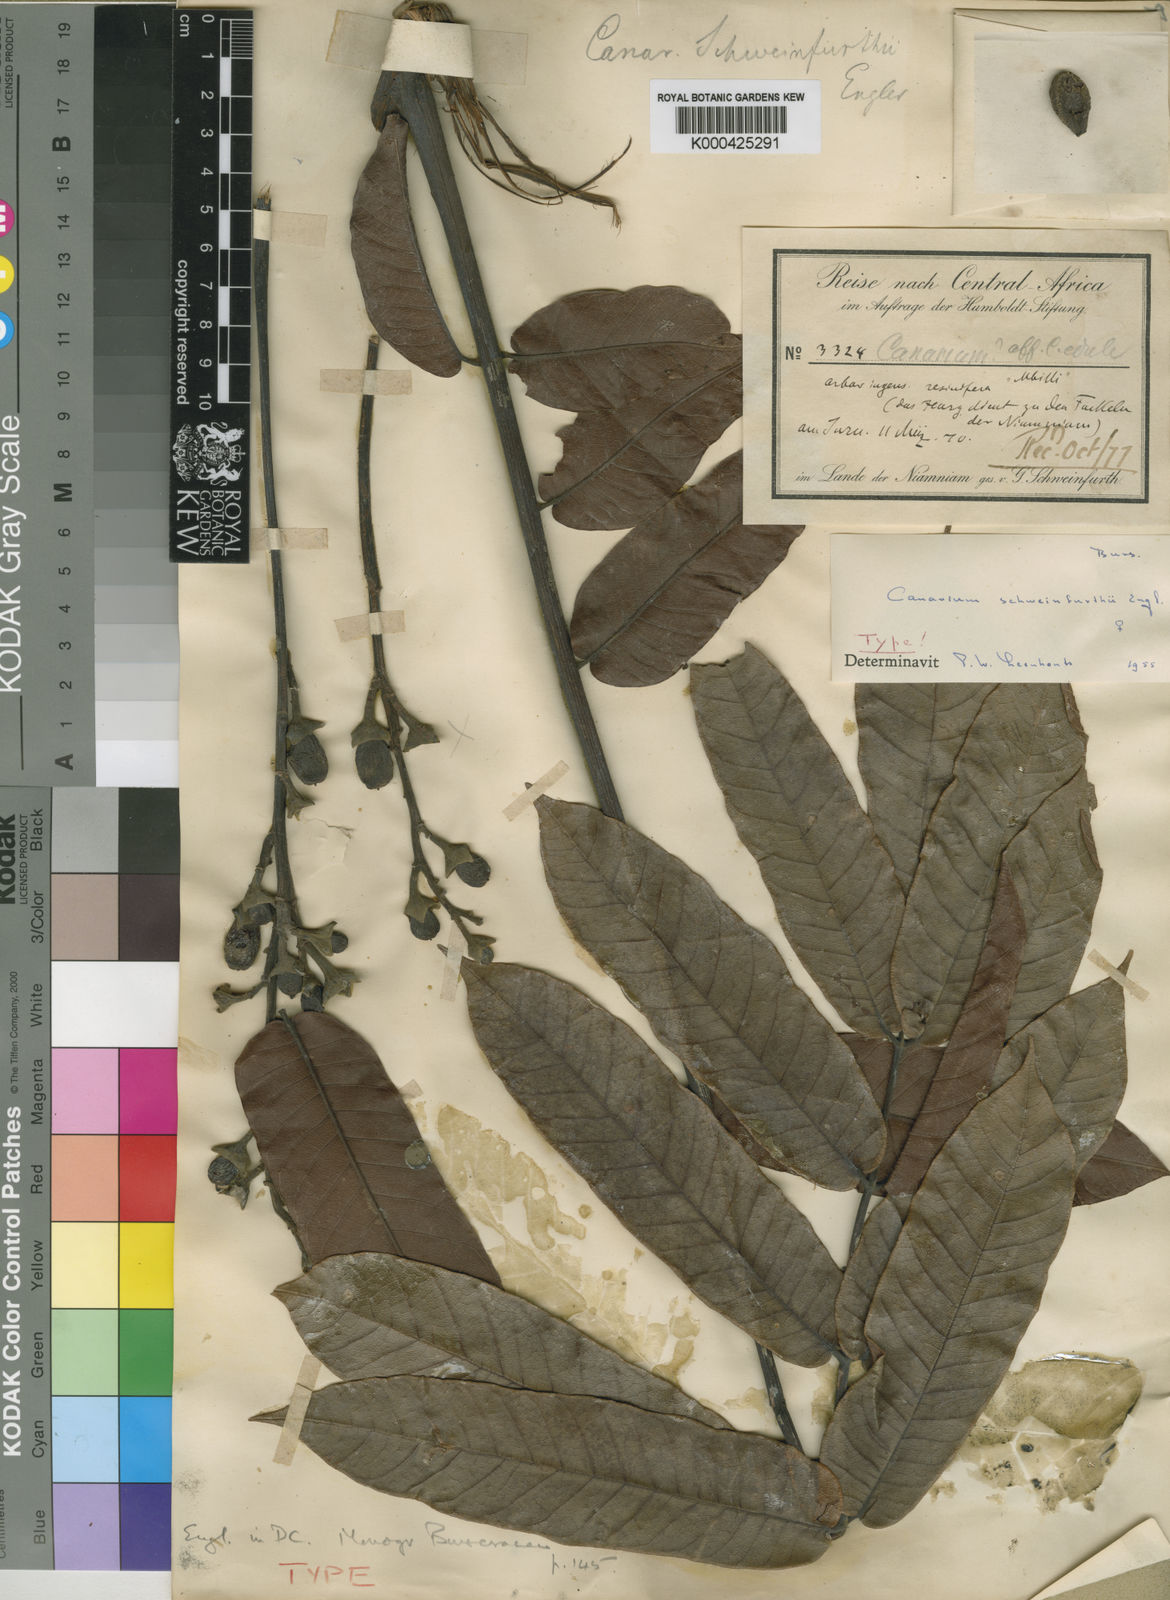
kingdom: Plantae
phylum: Tracheophyta
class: Magnoliopsida
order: Sapindales
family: Burseraceae
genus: Canarium
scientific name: Canarium schweinfurthii
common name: African elemi
